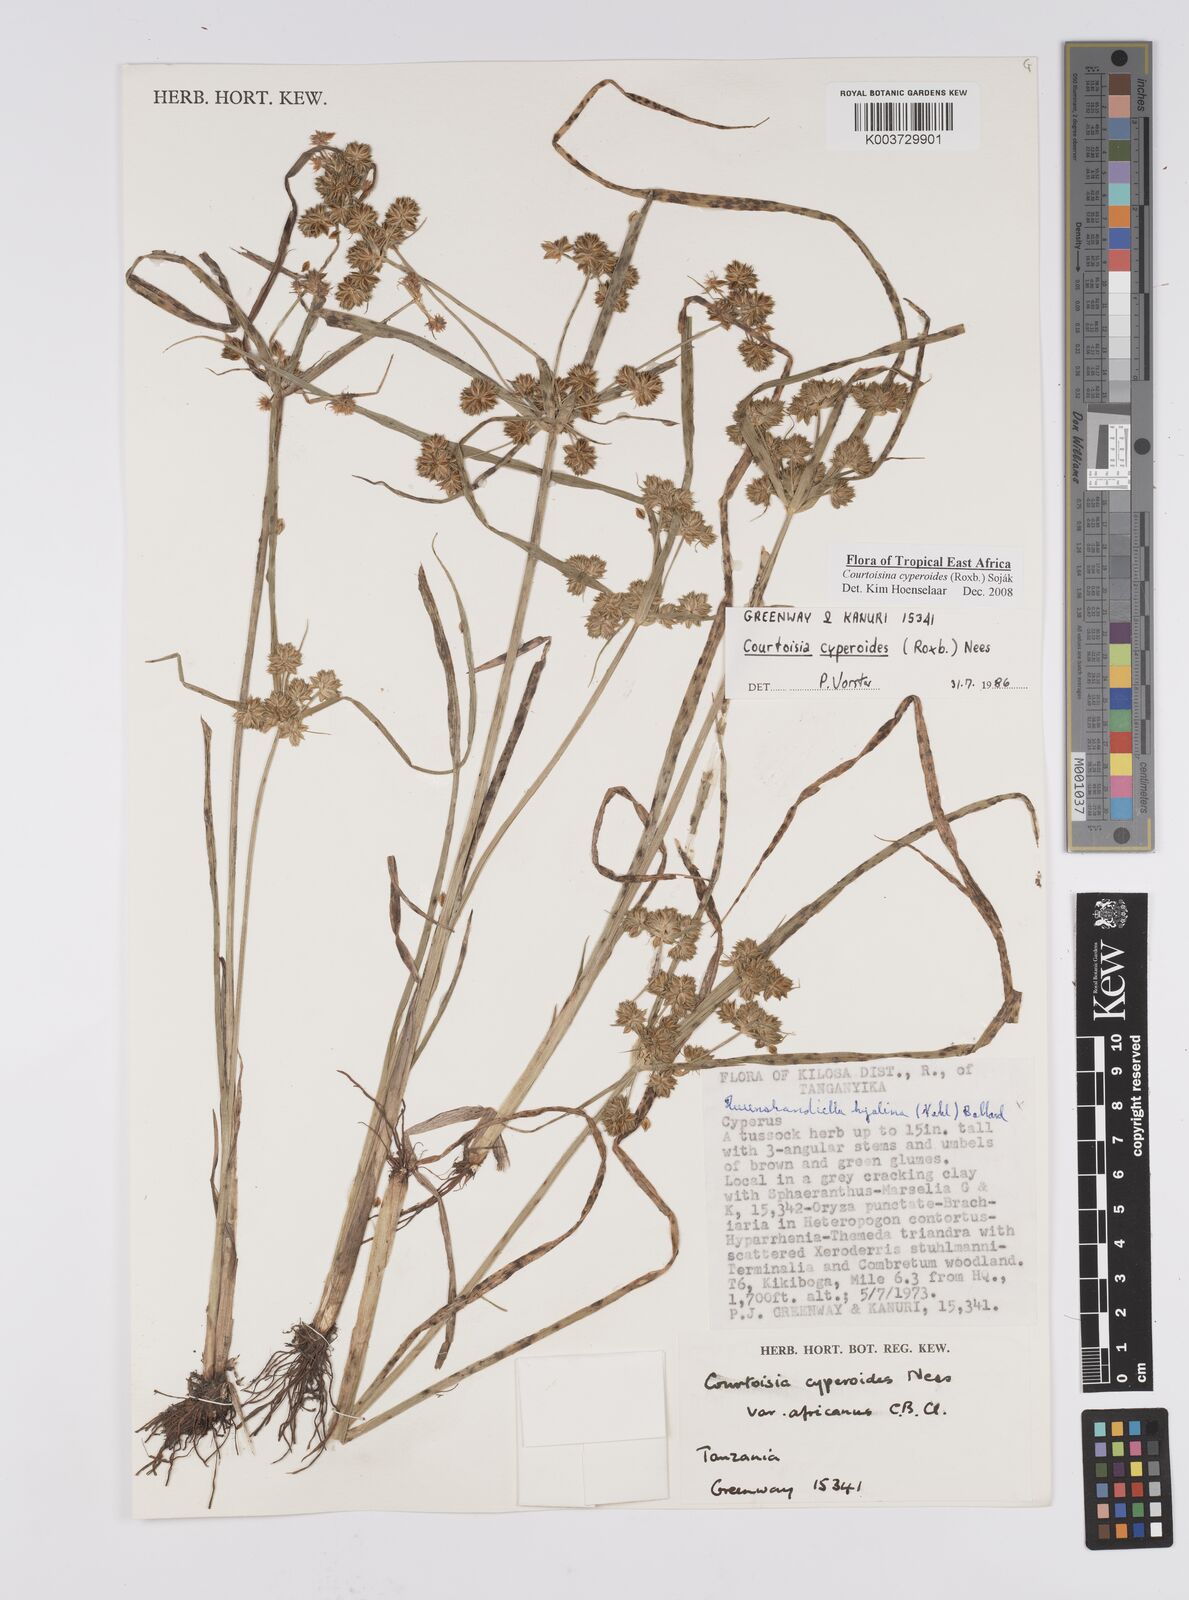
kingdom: Plantae
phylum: Tracheophyta
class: Liliopsida
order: Poales
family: Cyperaceae
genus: Cyperus
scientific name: Cyperus cyperoides
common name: Pacific island flat sedge
